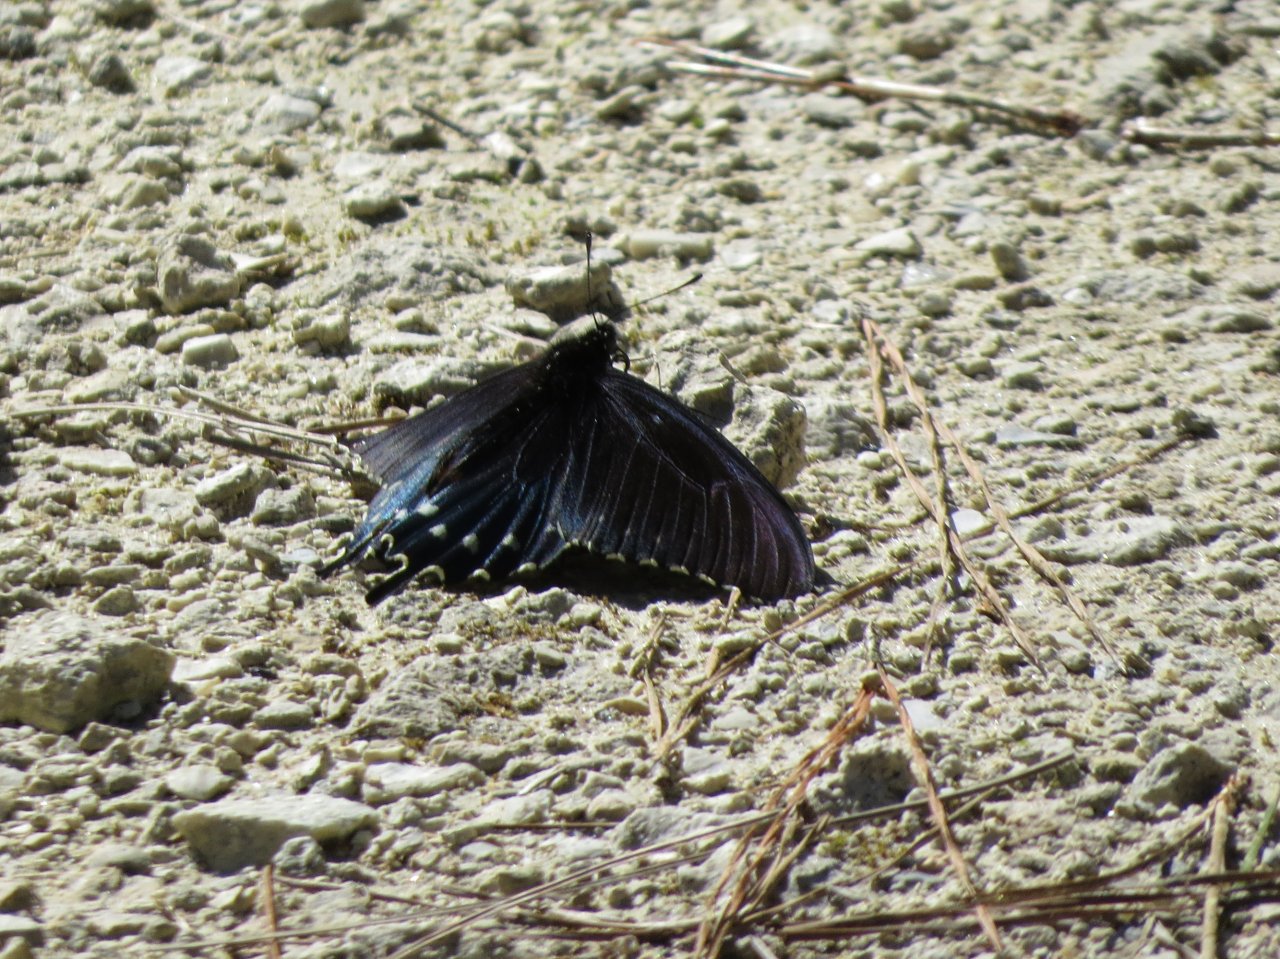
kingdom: Animalia
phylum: Arthropoda
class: Insecta
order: Lepidoptera
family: Papilionidae
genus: Battus
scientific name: Battus philenor
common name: Pipevine Swallowtail
